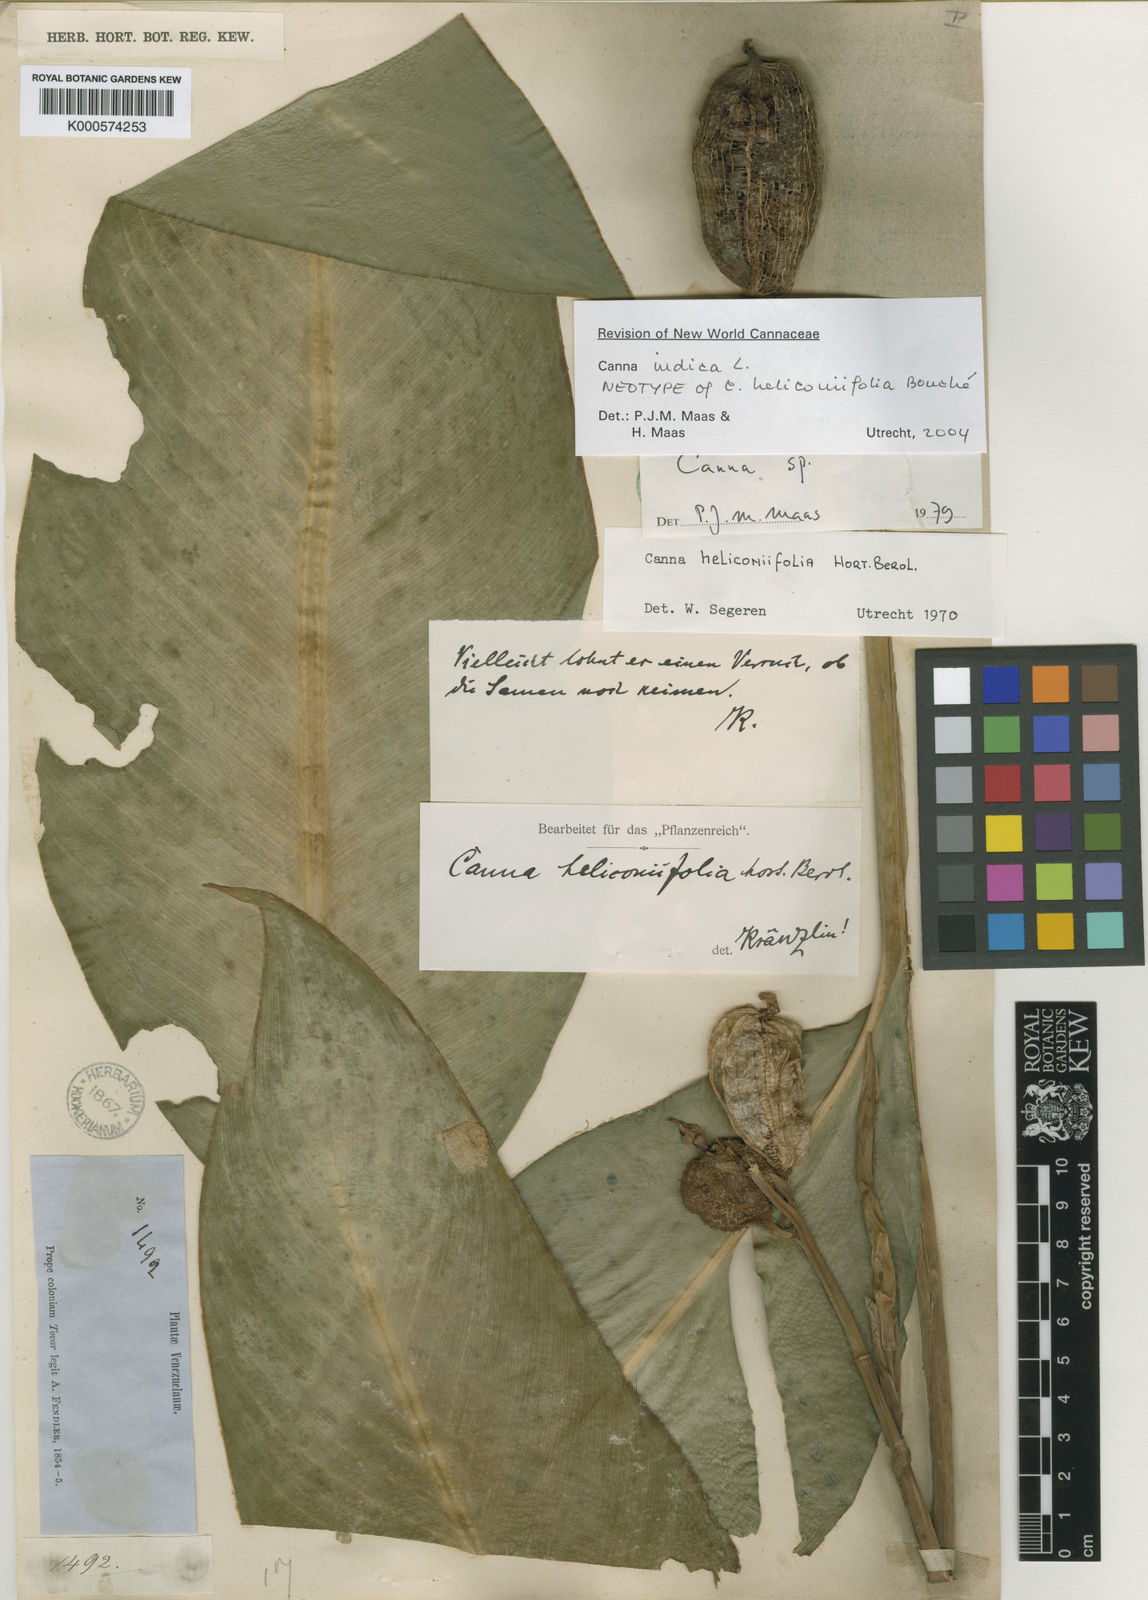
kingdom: Plantae
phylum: Tracheophyta
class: Liliopsida
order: Zingiberales
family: Cannaceae
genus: Canna
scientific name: Canna indica
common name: Indian shot
